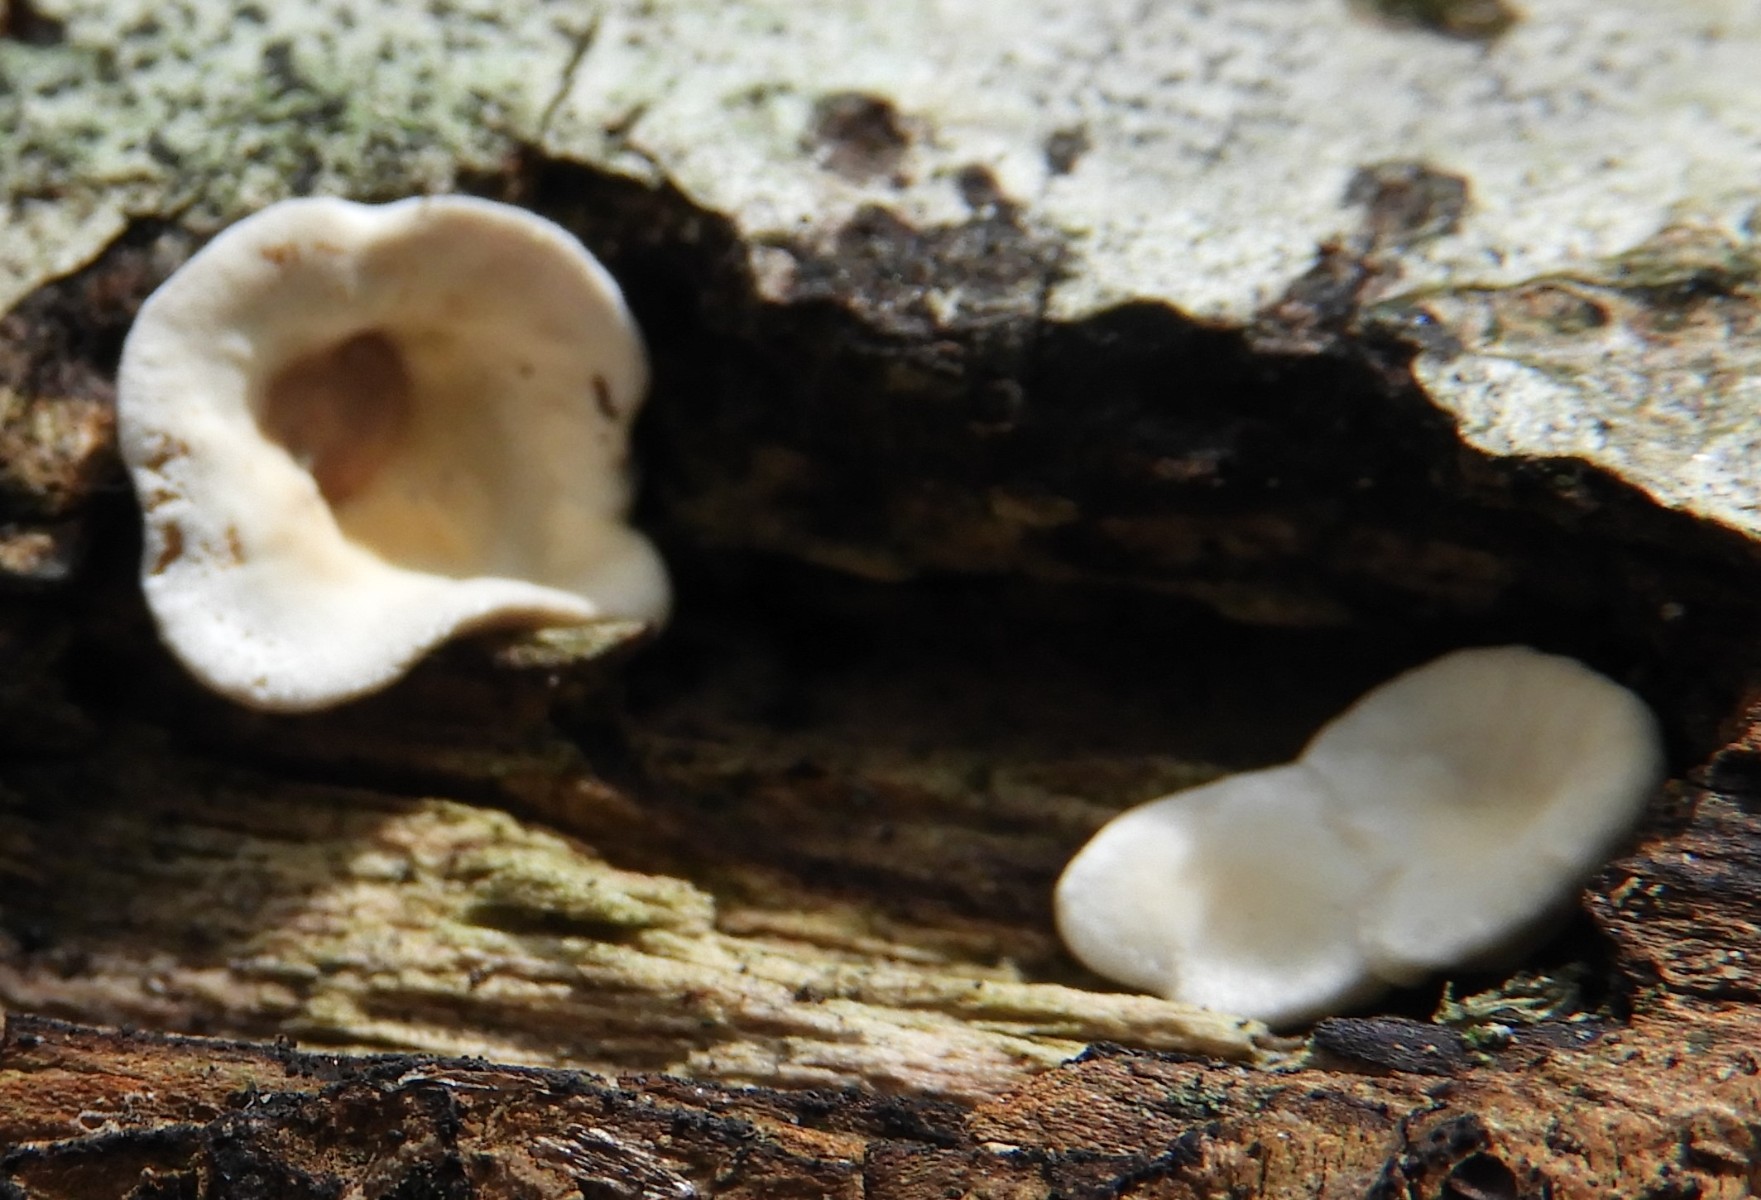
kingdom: Fungi
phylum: Basidiomycota
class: Agaricomycetes
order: Russulales
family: Stereaceae
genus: Stereum
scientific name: Stereum hirsutum
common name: håret lædersvamp
